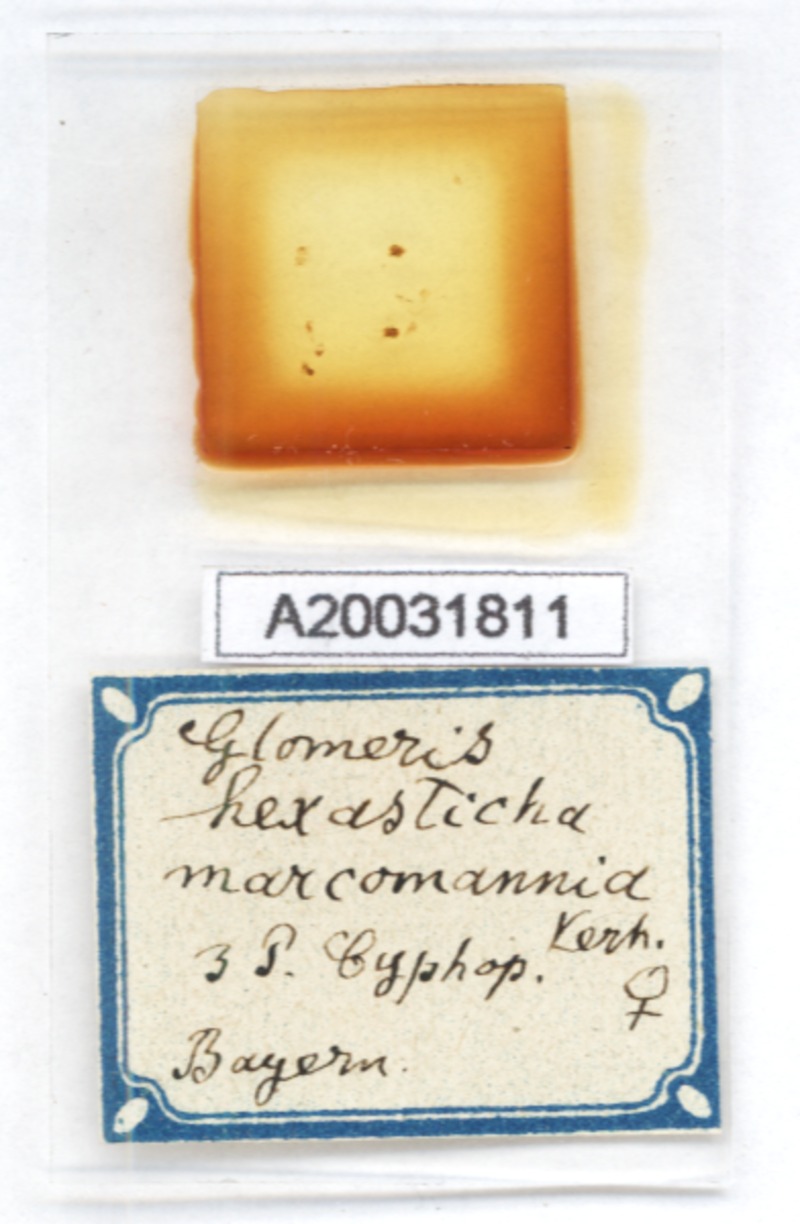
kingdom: Animalia
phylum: Arthropoda
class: Diplopoda
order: Glomerida
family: Glomeridae
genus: Glomeris
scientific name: Glomeris hexasticha
